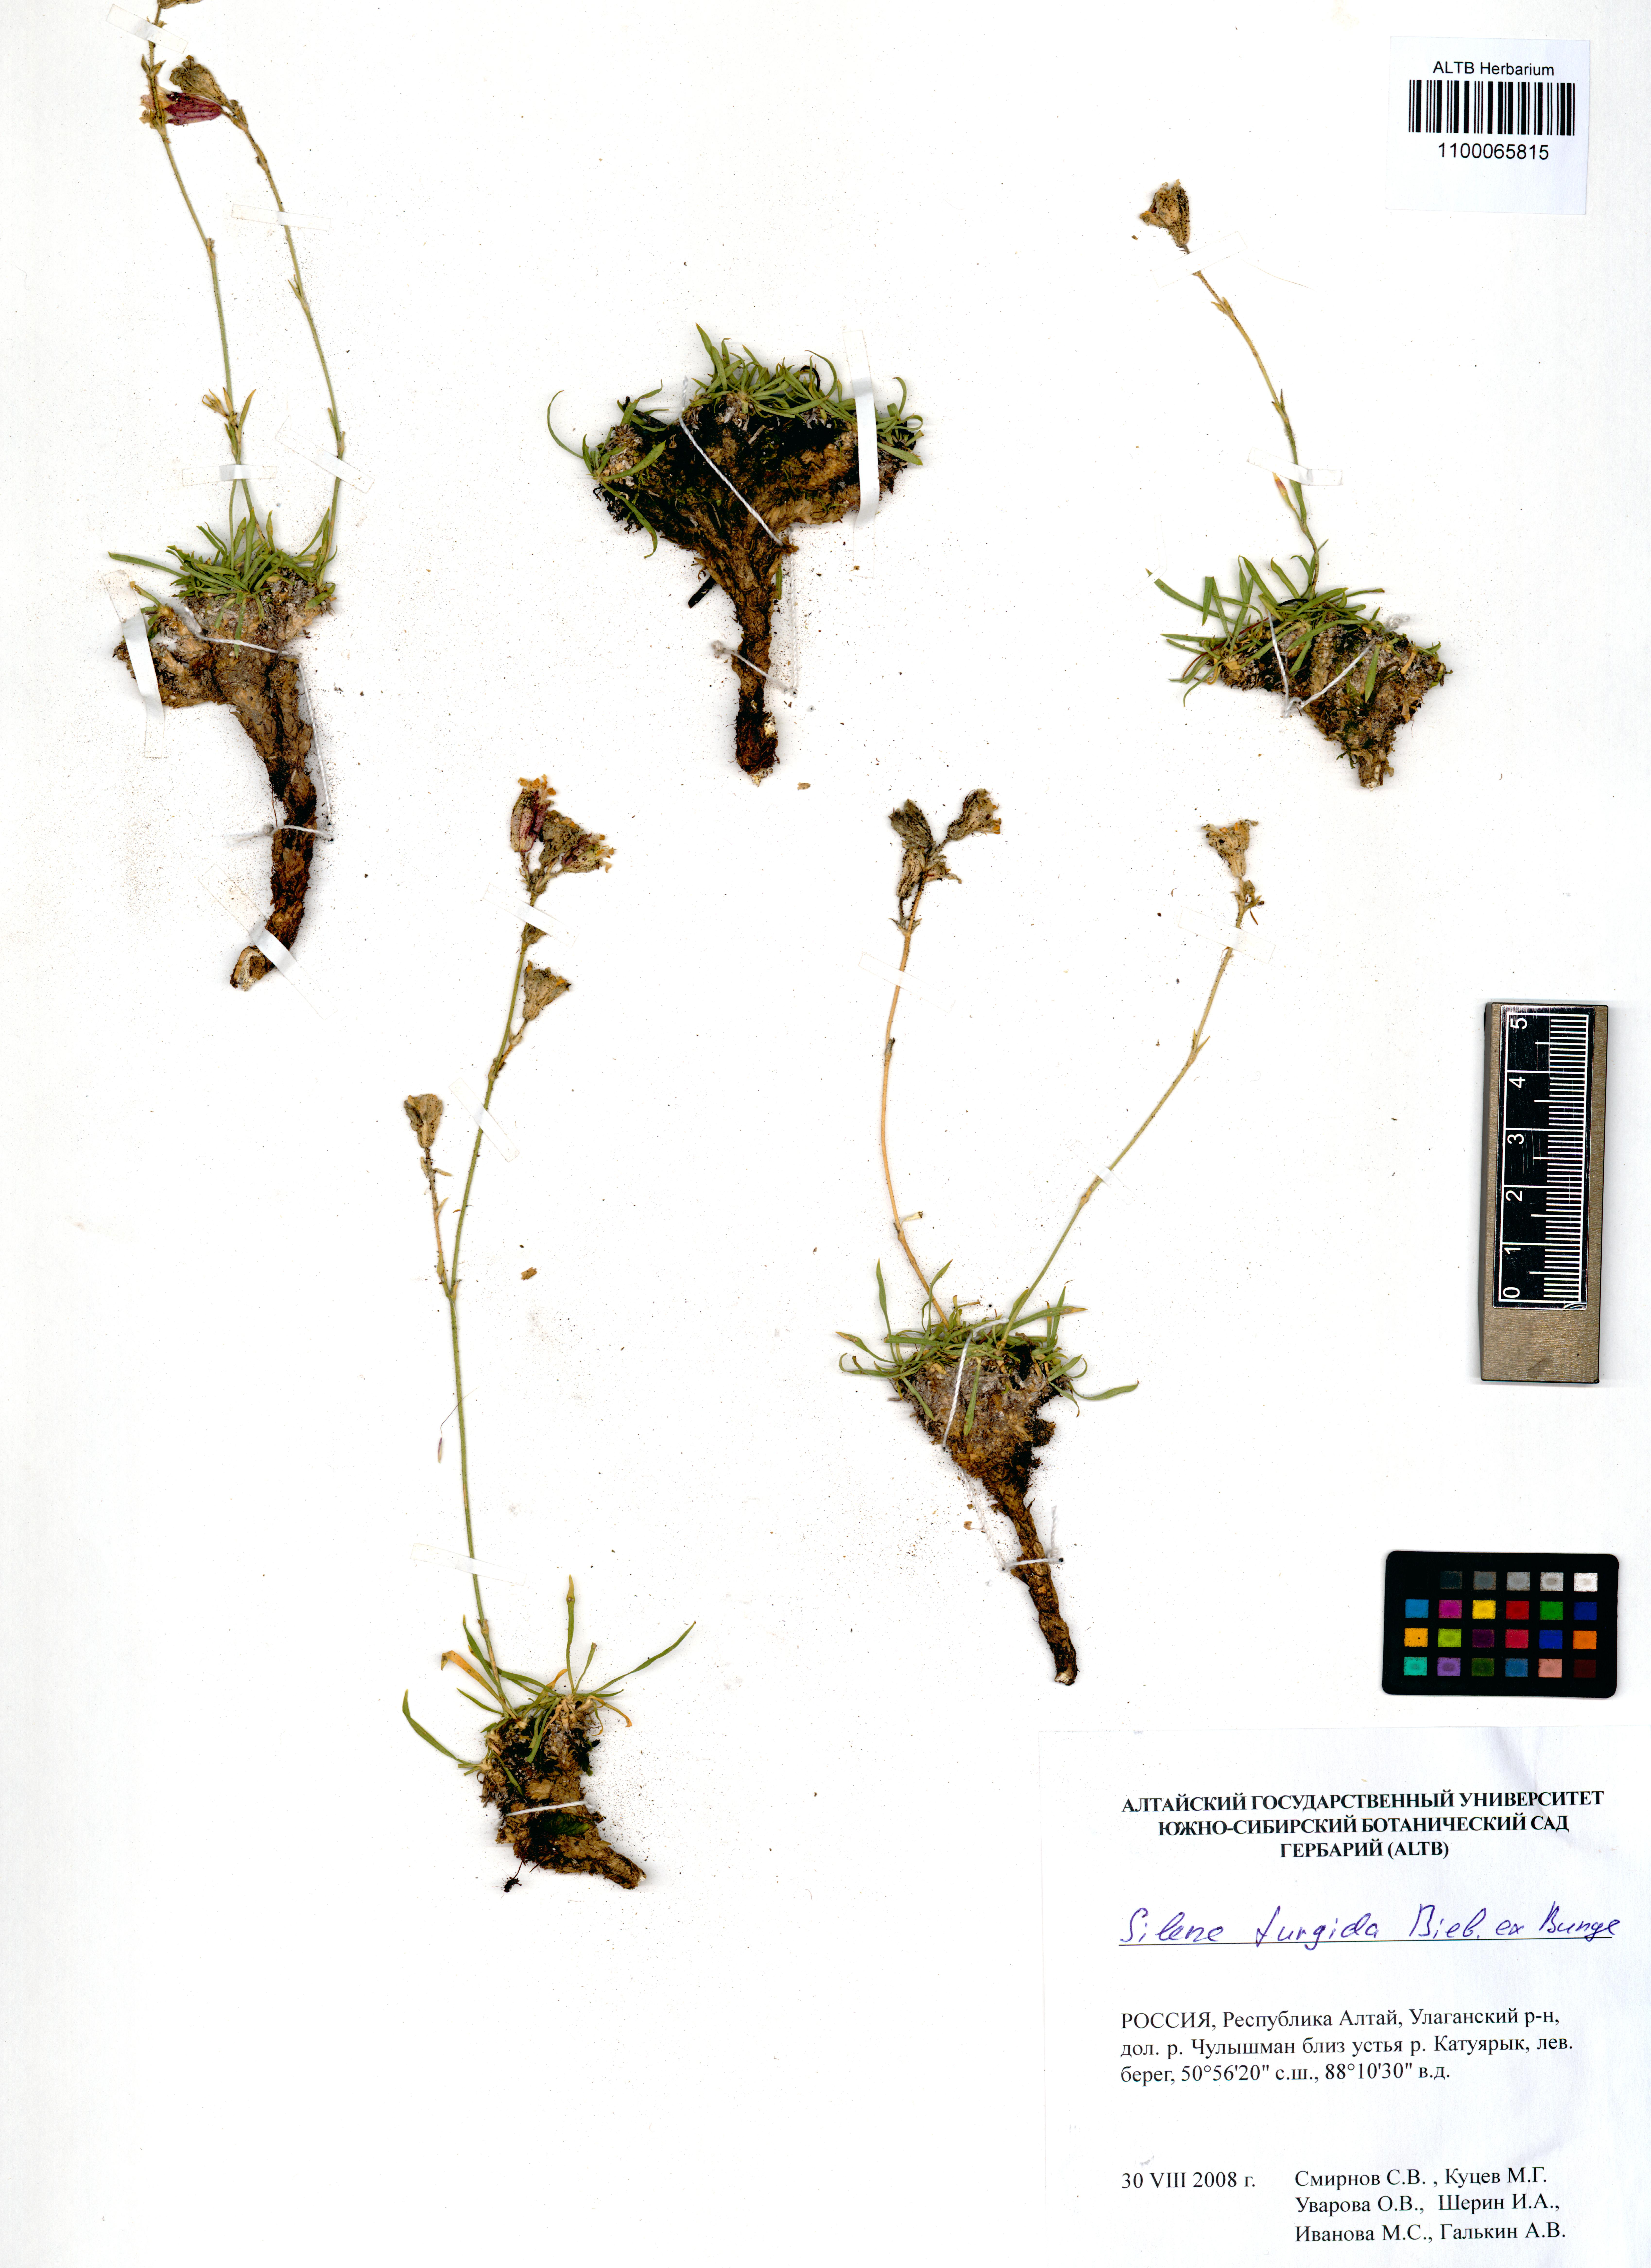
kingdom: Plantae
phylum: Tracheophyta
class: Magnoliopsida
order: Caryophyllales
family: Caryophyllaceae
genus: Silene
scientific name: Silene turgida
